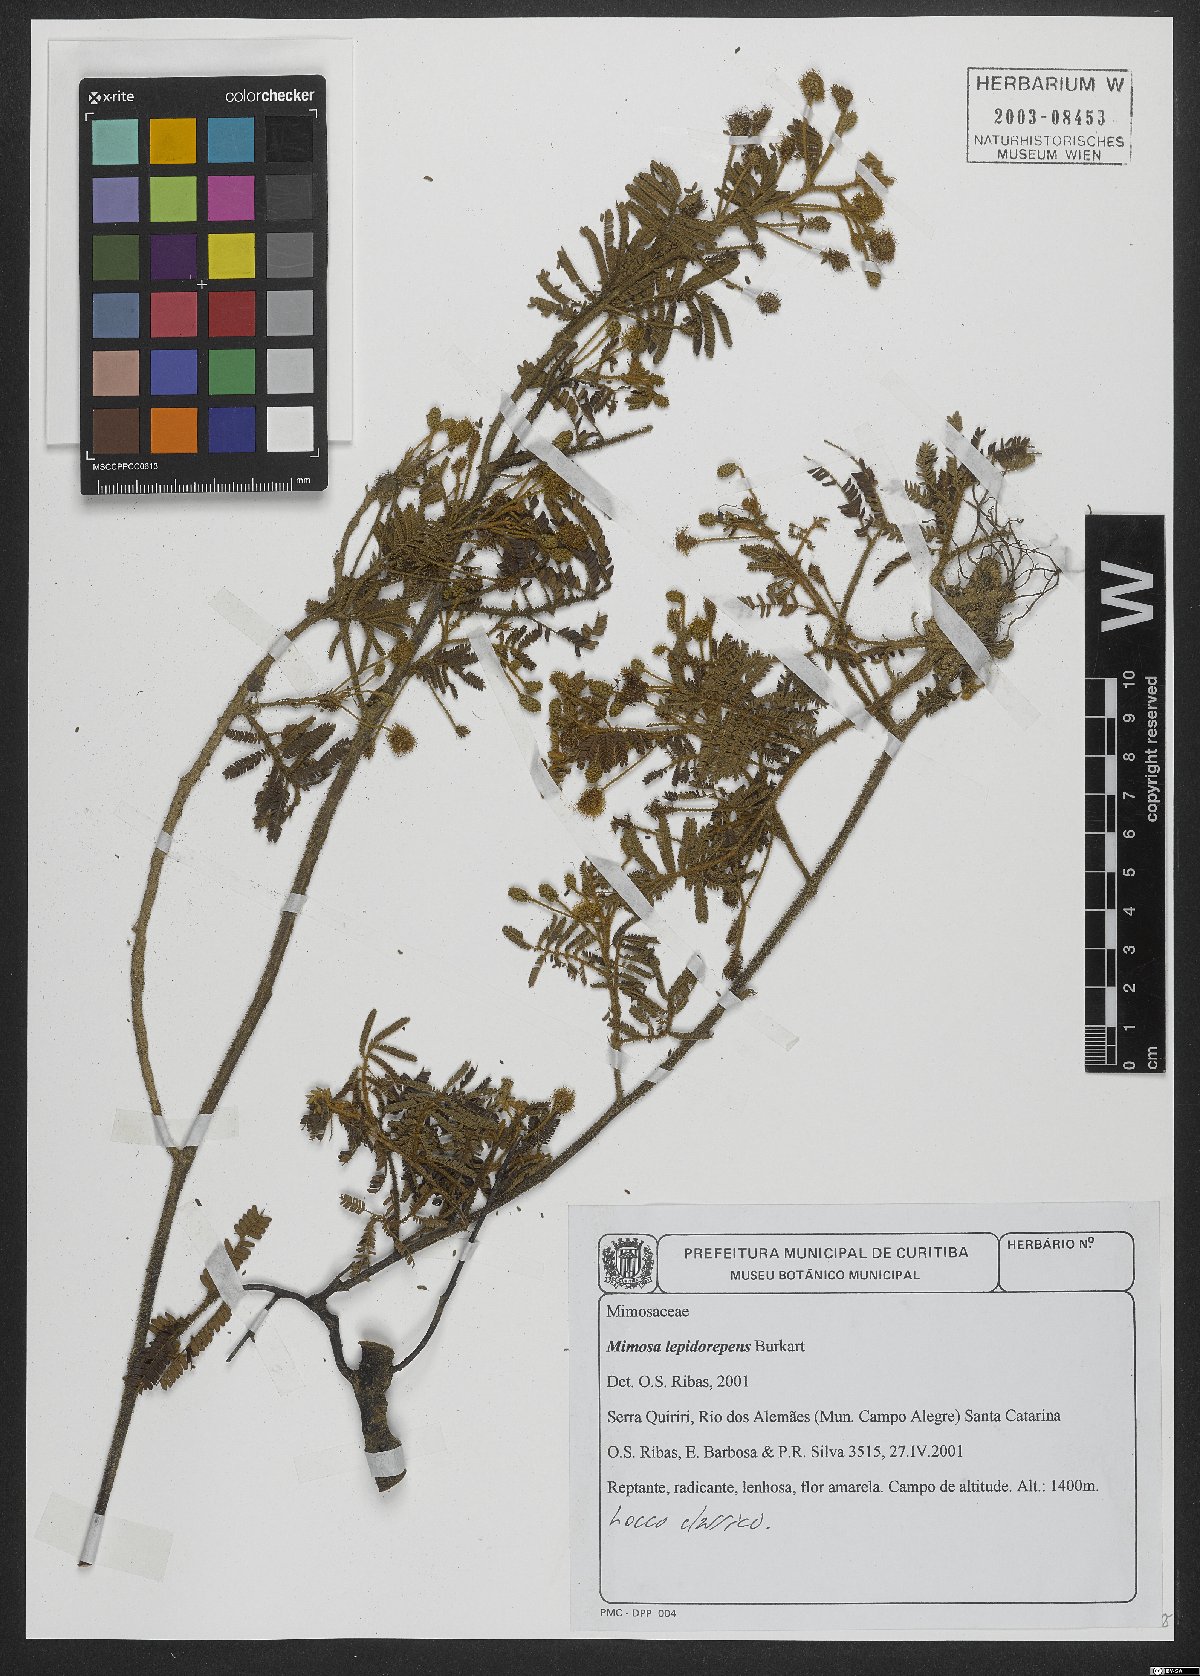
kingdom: Plantae
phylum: Tracheophyta
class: Magnoliopsida
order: Fabales
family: Fabaceae
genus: Mimosa
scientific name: Mimosa lepidorepens
